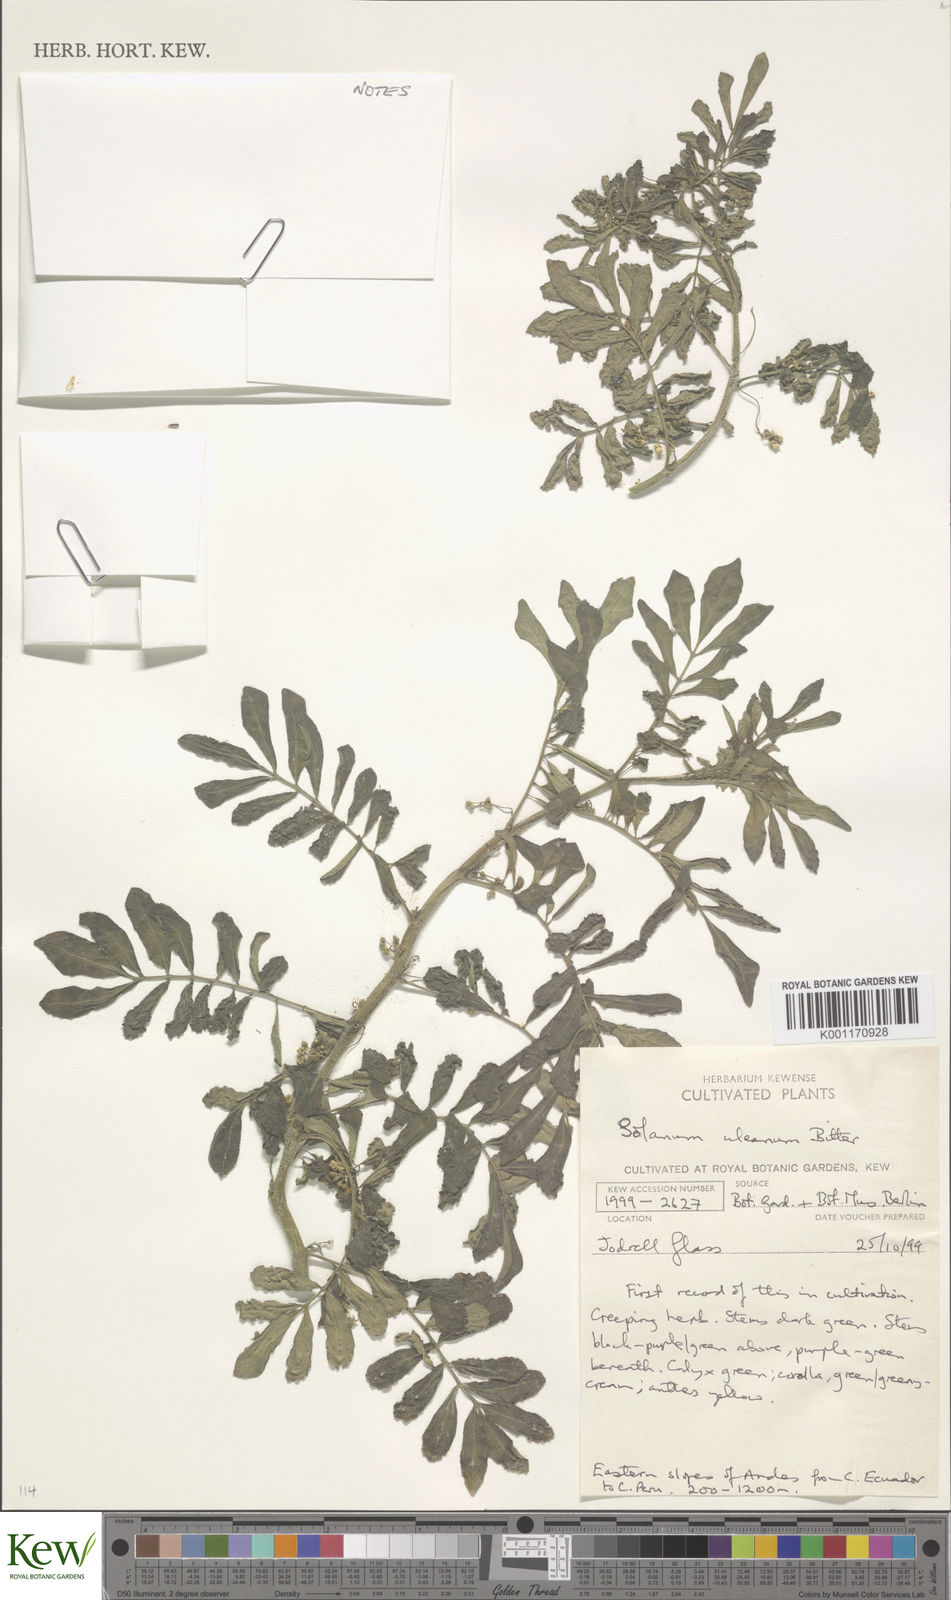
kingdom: Plantae
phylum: Tracheophyta
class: Magnoliopsida
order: Solanales
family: Solanaceae
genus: Solanum
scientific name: Solanum uleanum
